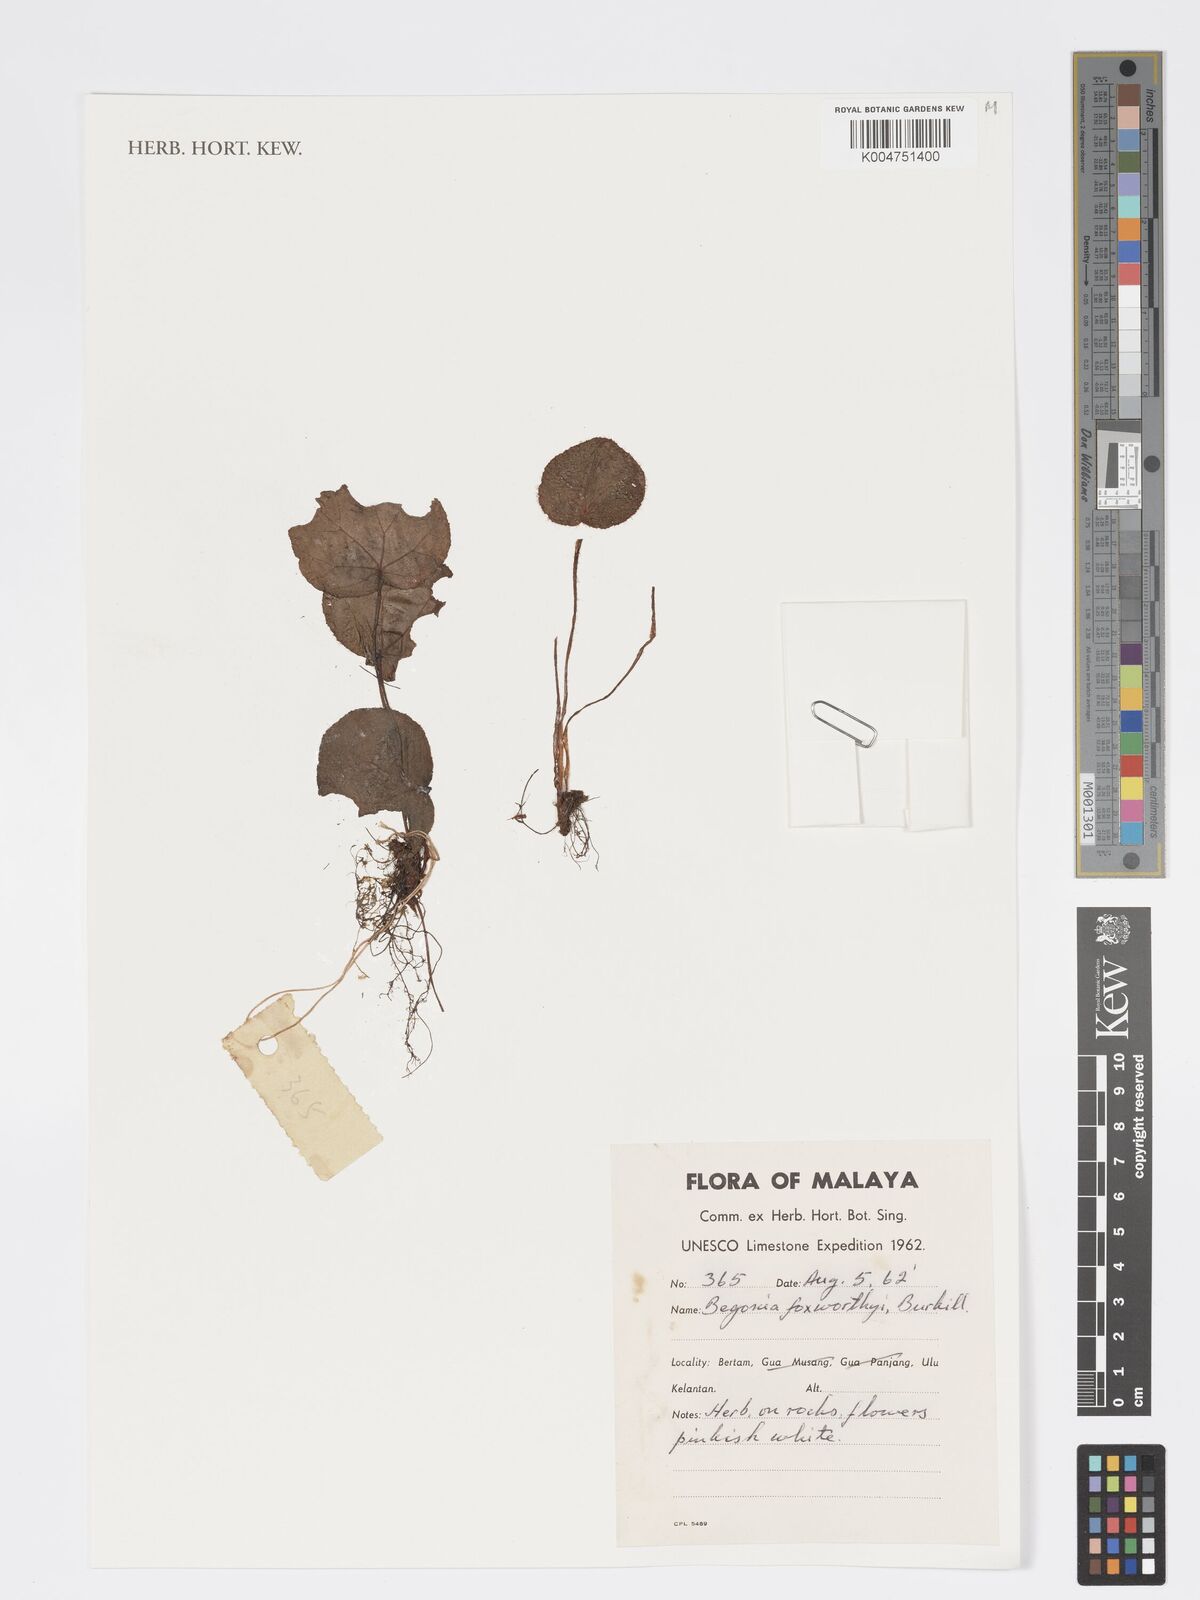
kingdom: Plantae
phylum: Tracheophyta
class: Magnoliopsida
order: Cucurbitales
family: Begoniaceae
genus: Begonia
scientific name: Begonia foxworthyi
